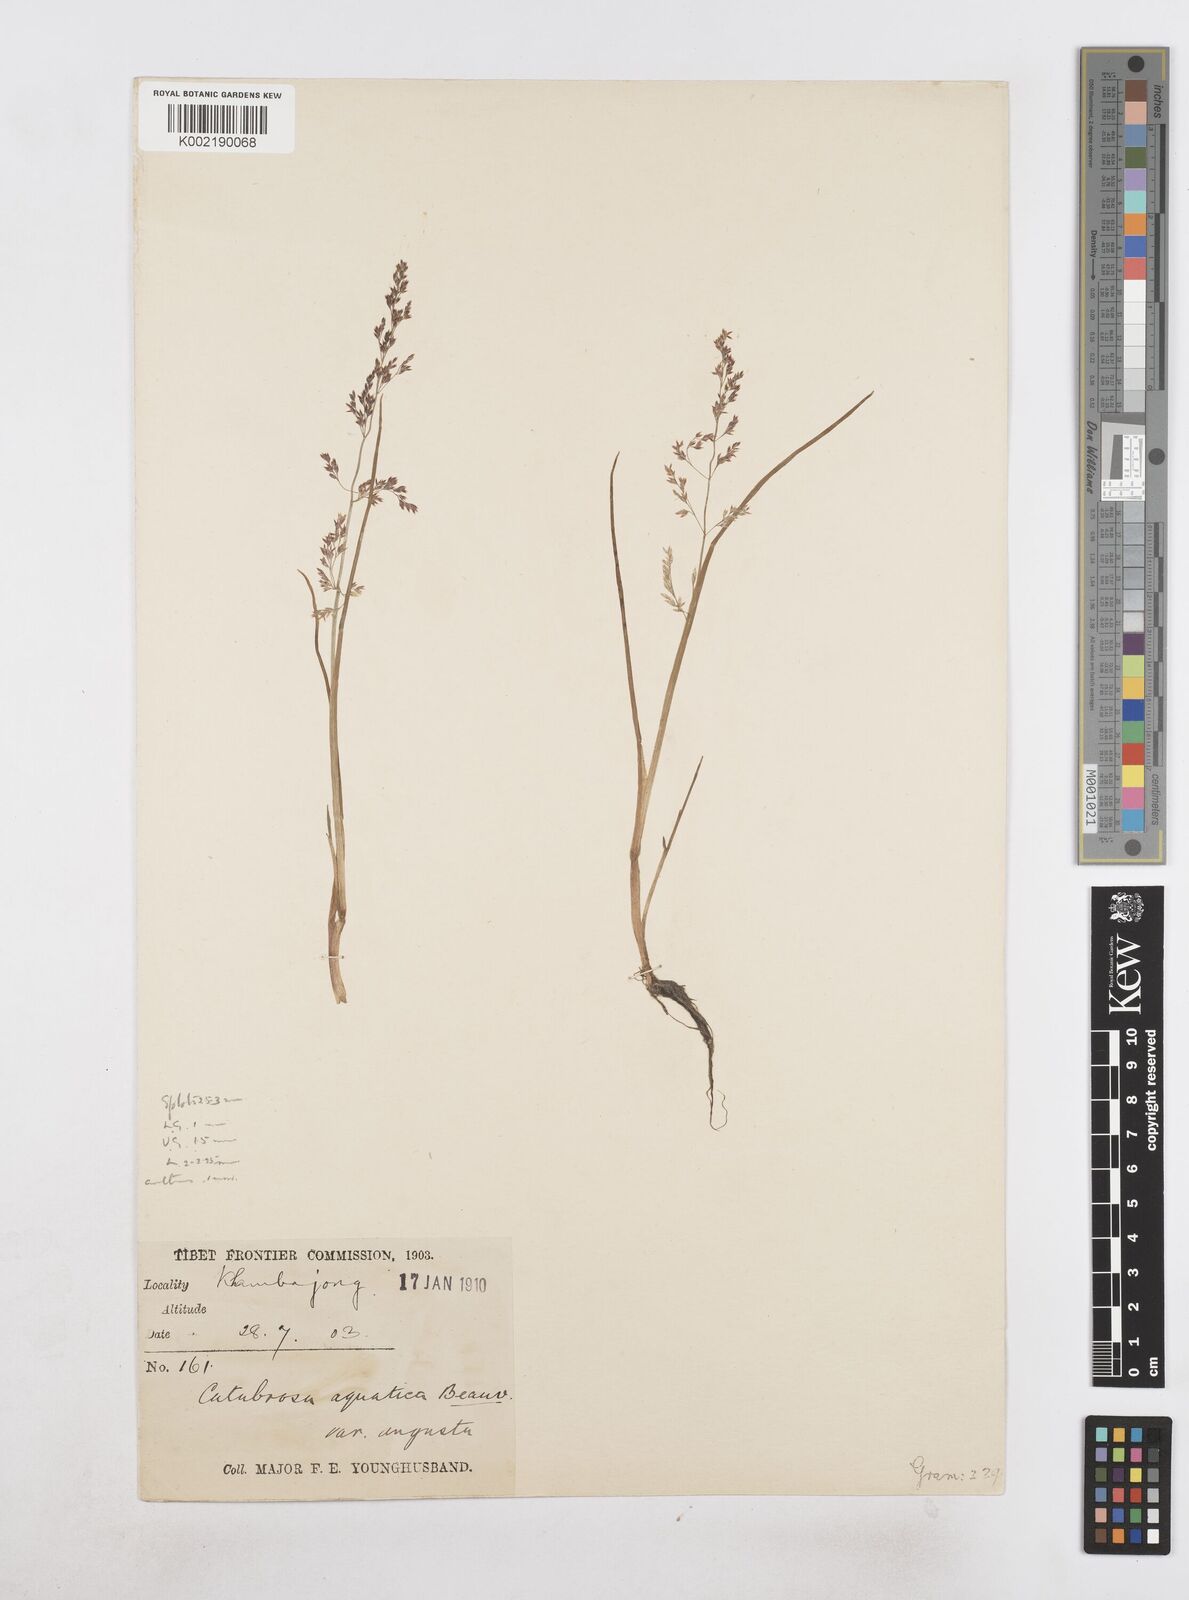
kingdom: Plantae
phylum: Tracheophyta
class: Liliopsida
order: Poales
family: Poaceae
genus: Catabrosa
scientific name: Catabrosa aquatica
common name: Whorl-grass
